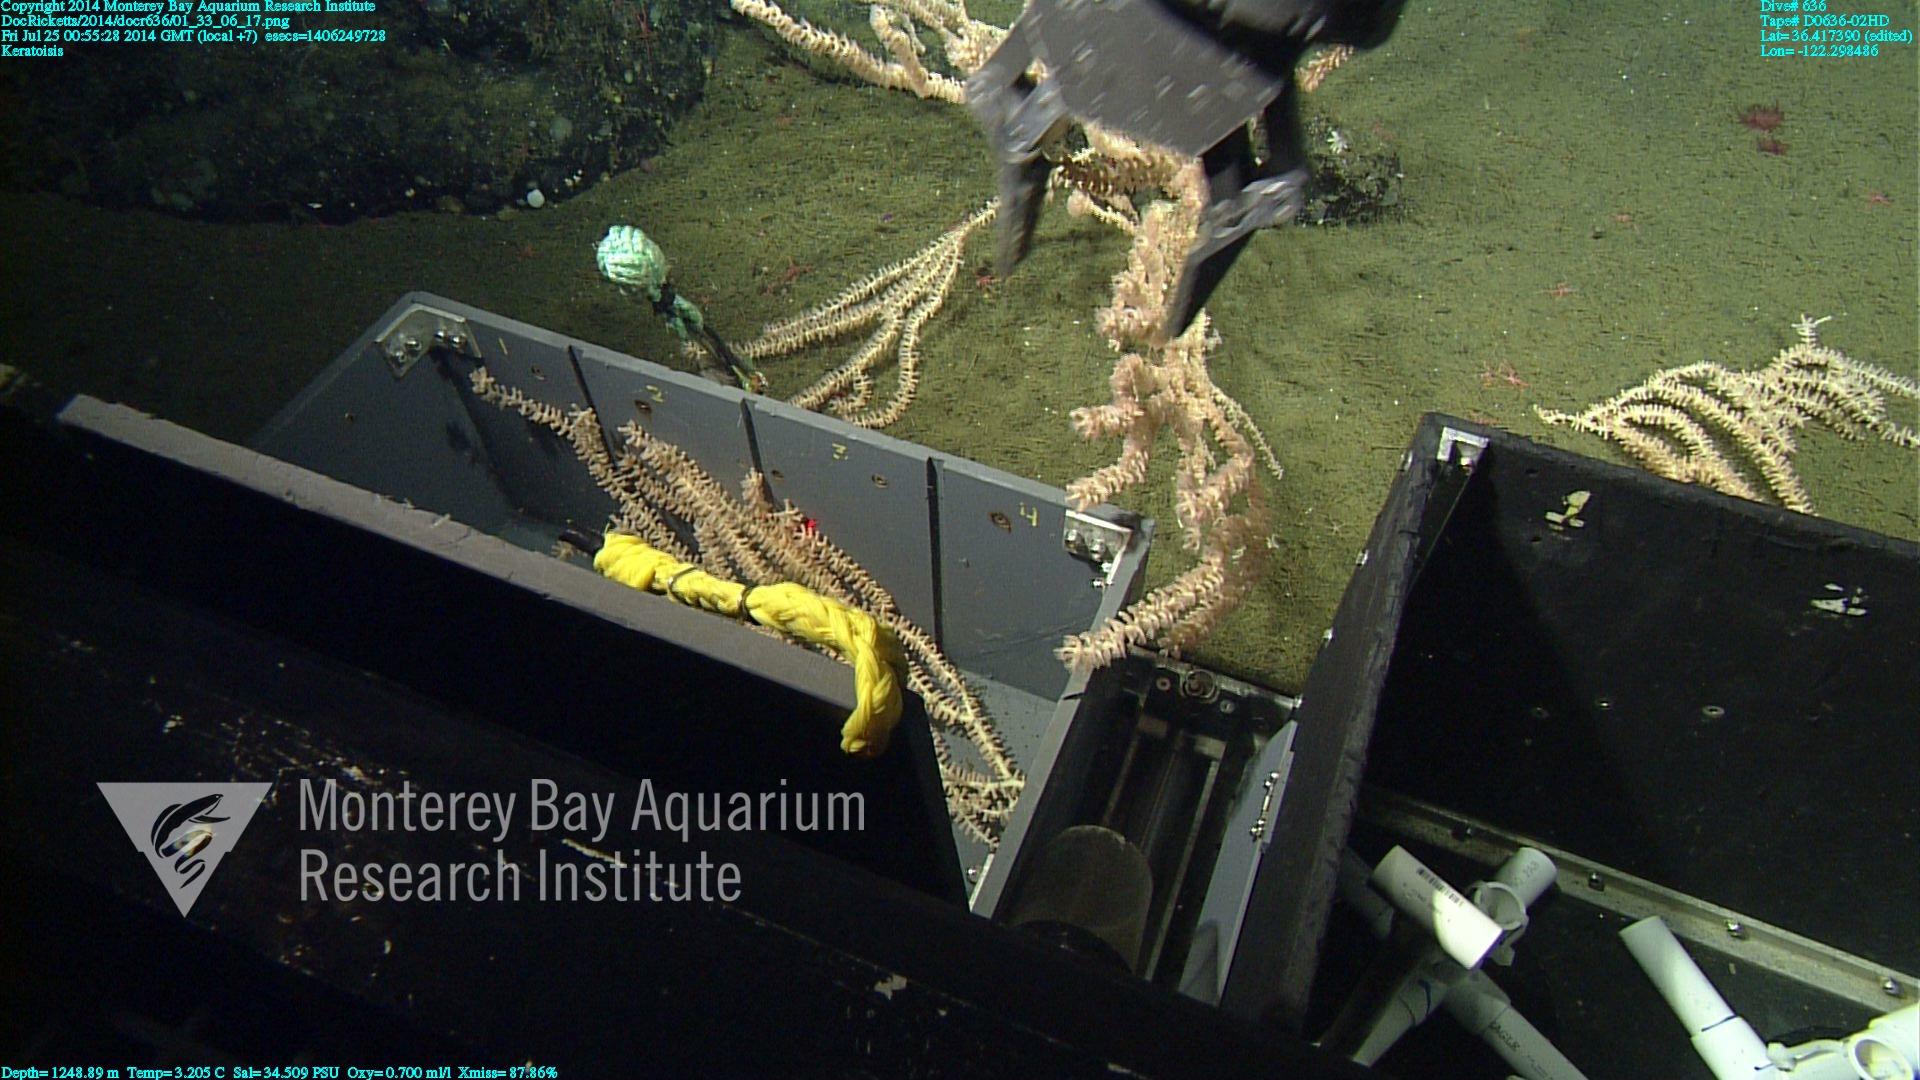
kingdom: Animalia
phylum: Cnidaria
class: Anthozoa
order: Scleralcyonacea
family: Keratoisididae
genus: Keratoisis
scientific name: Keratoisis
